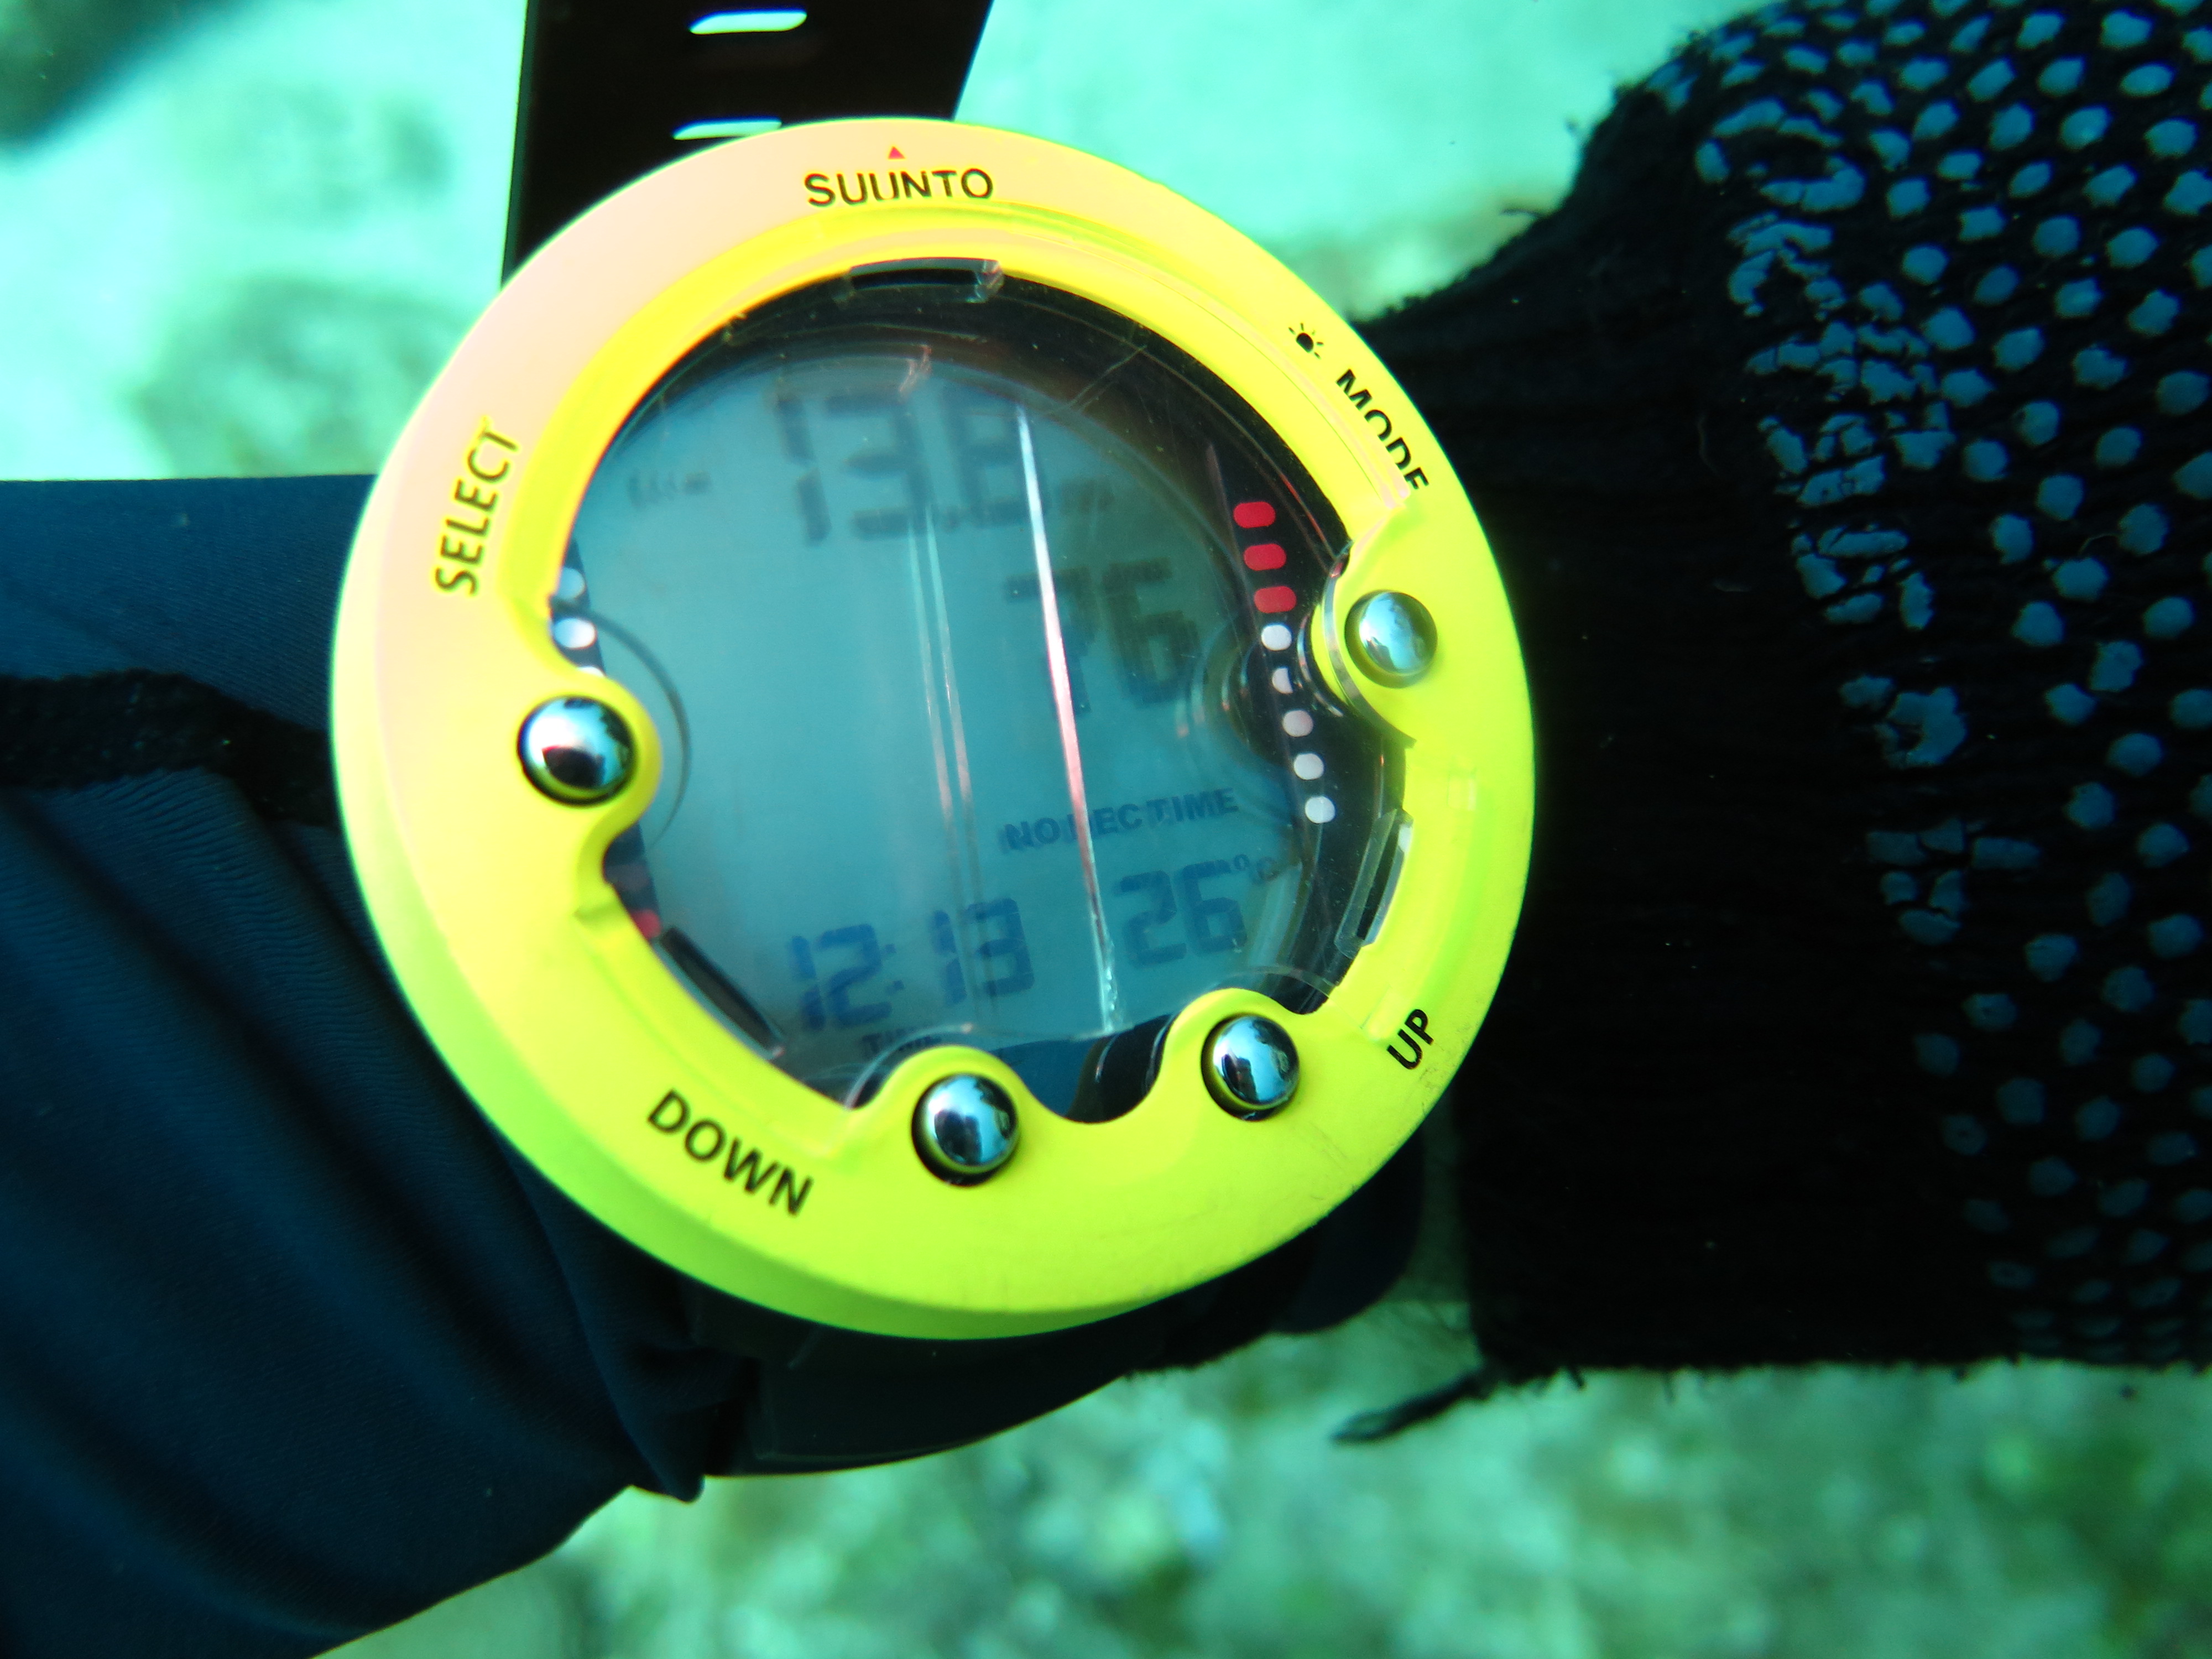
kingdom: Animalia
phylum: Cnidaria
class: Anthozoa
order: Malacalcyonacea
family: Gorgoniidae
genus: Gorgonia
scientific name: Gorgonia ventalina
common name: Common sea fan
